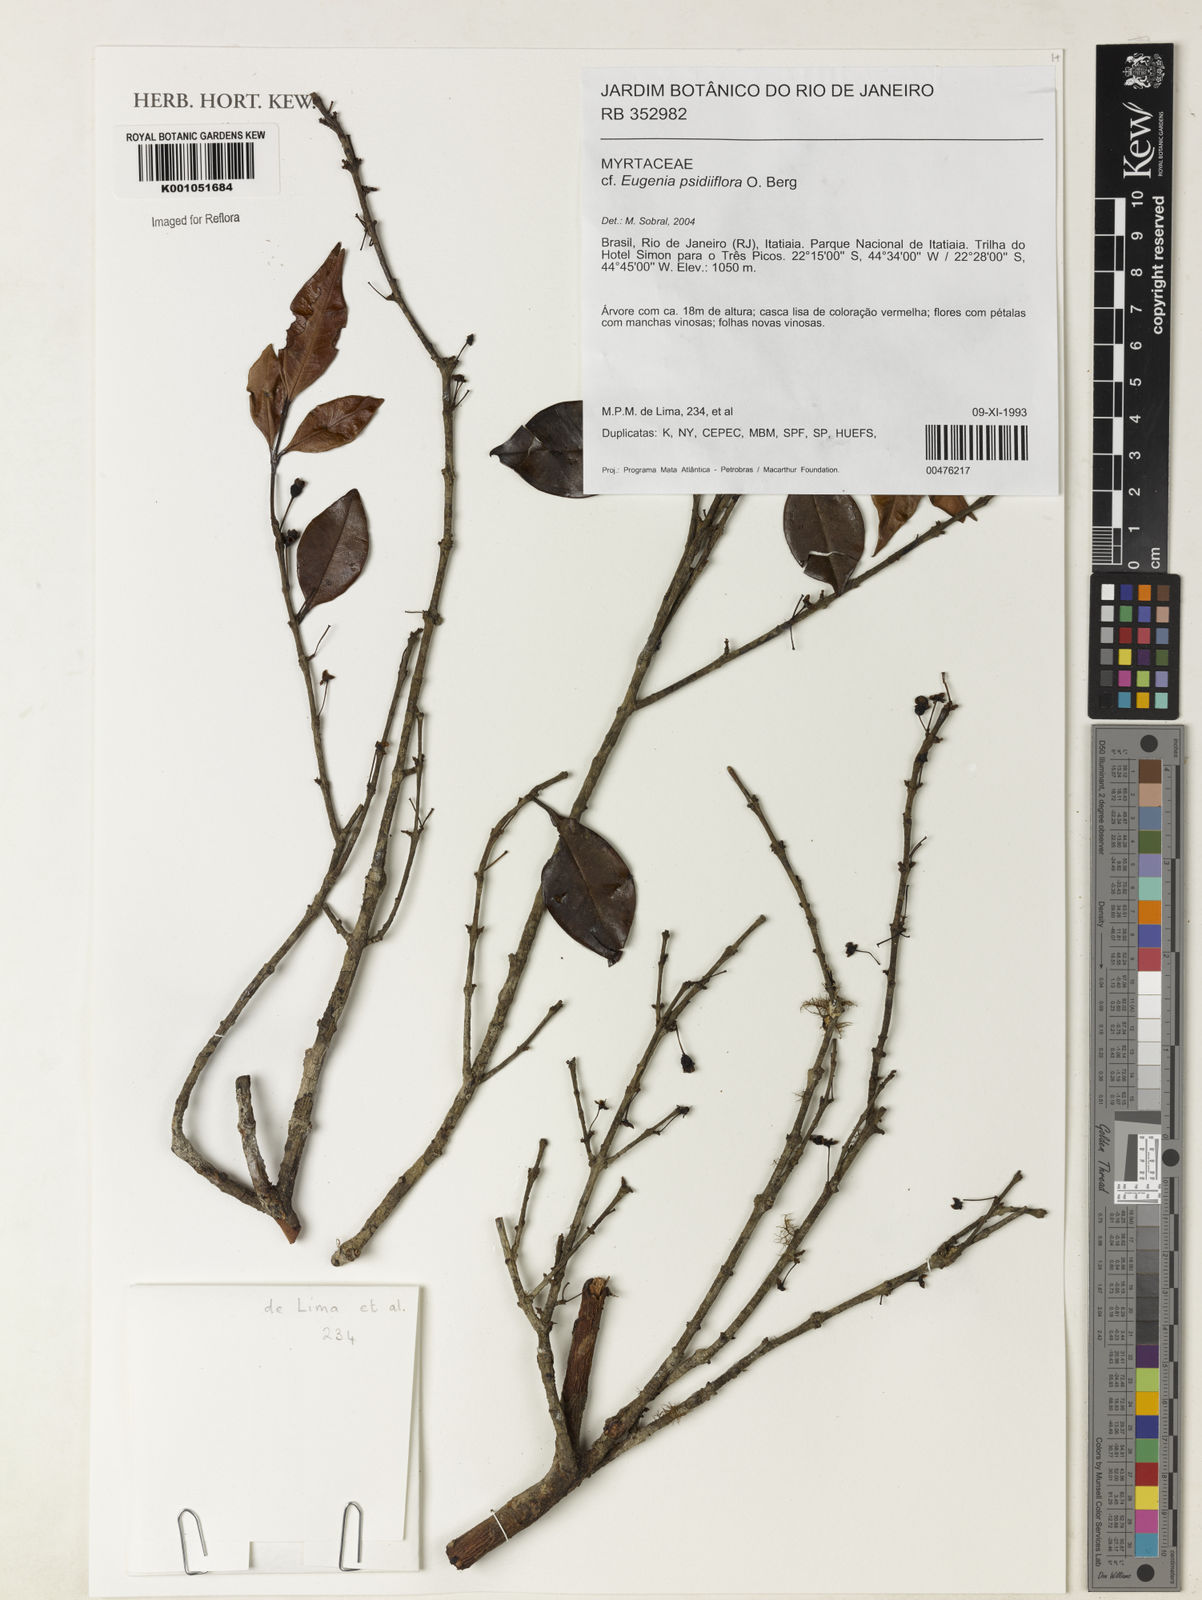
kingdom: Plantae
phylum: Tracheophyta
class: Magnoliopsida
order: Myrtales
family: Myrtaceae
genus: Eugenia
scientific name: Eugenia zuccarinii
